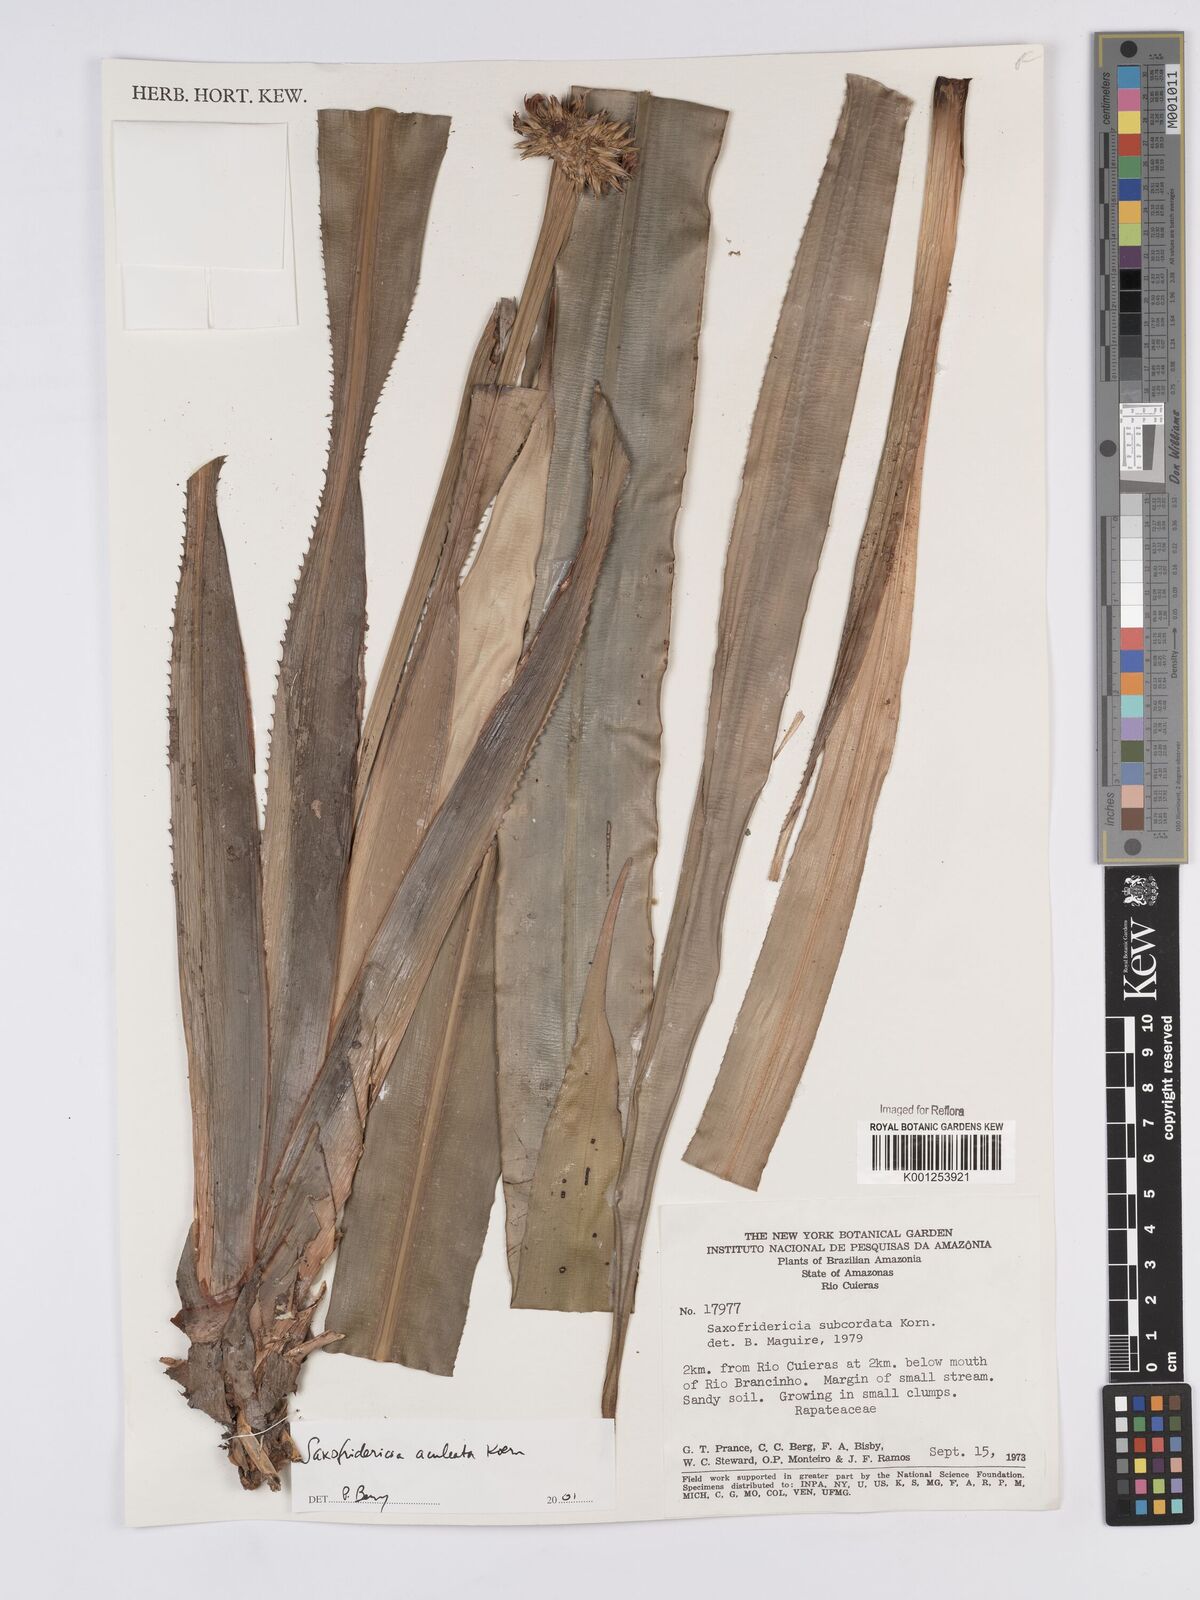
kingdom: Plantae
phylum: Tracheophyta
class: Liliopsida
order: Poales
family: Rapateaceae
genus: Saxofridericia
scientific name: Saxofridericia aculeata
